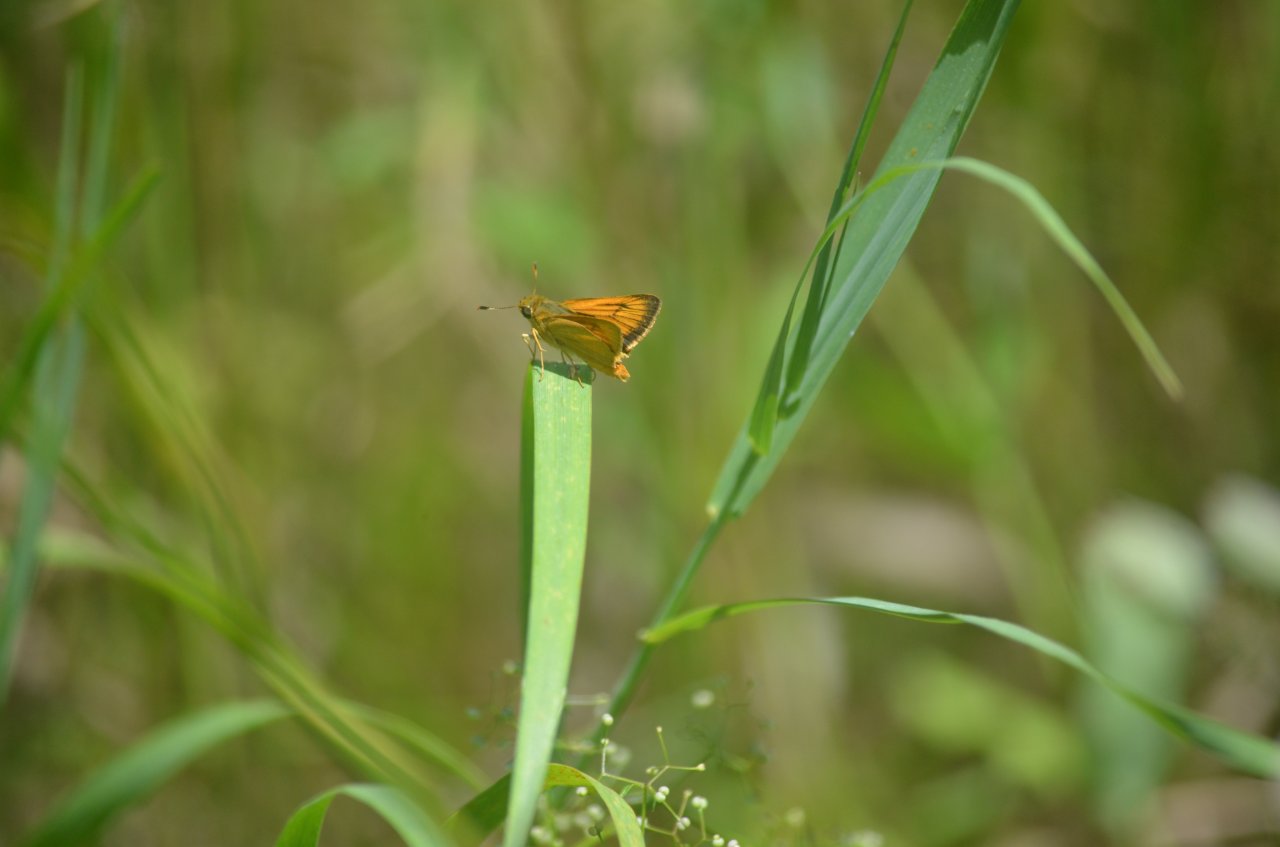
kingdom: Animalia
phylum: Arthropoda
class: Insecta
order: Lepidoptera
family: Hesperiidae
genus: Atrytone
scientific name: Atrytone delaware
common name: Delaware Skipper
